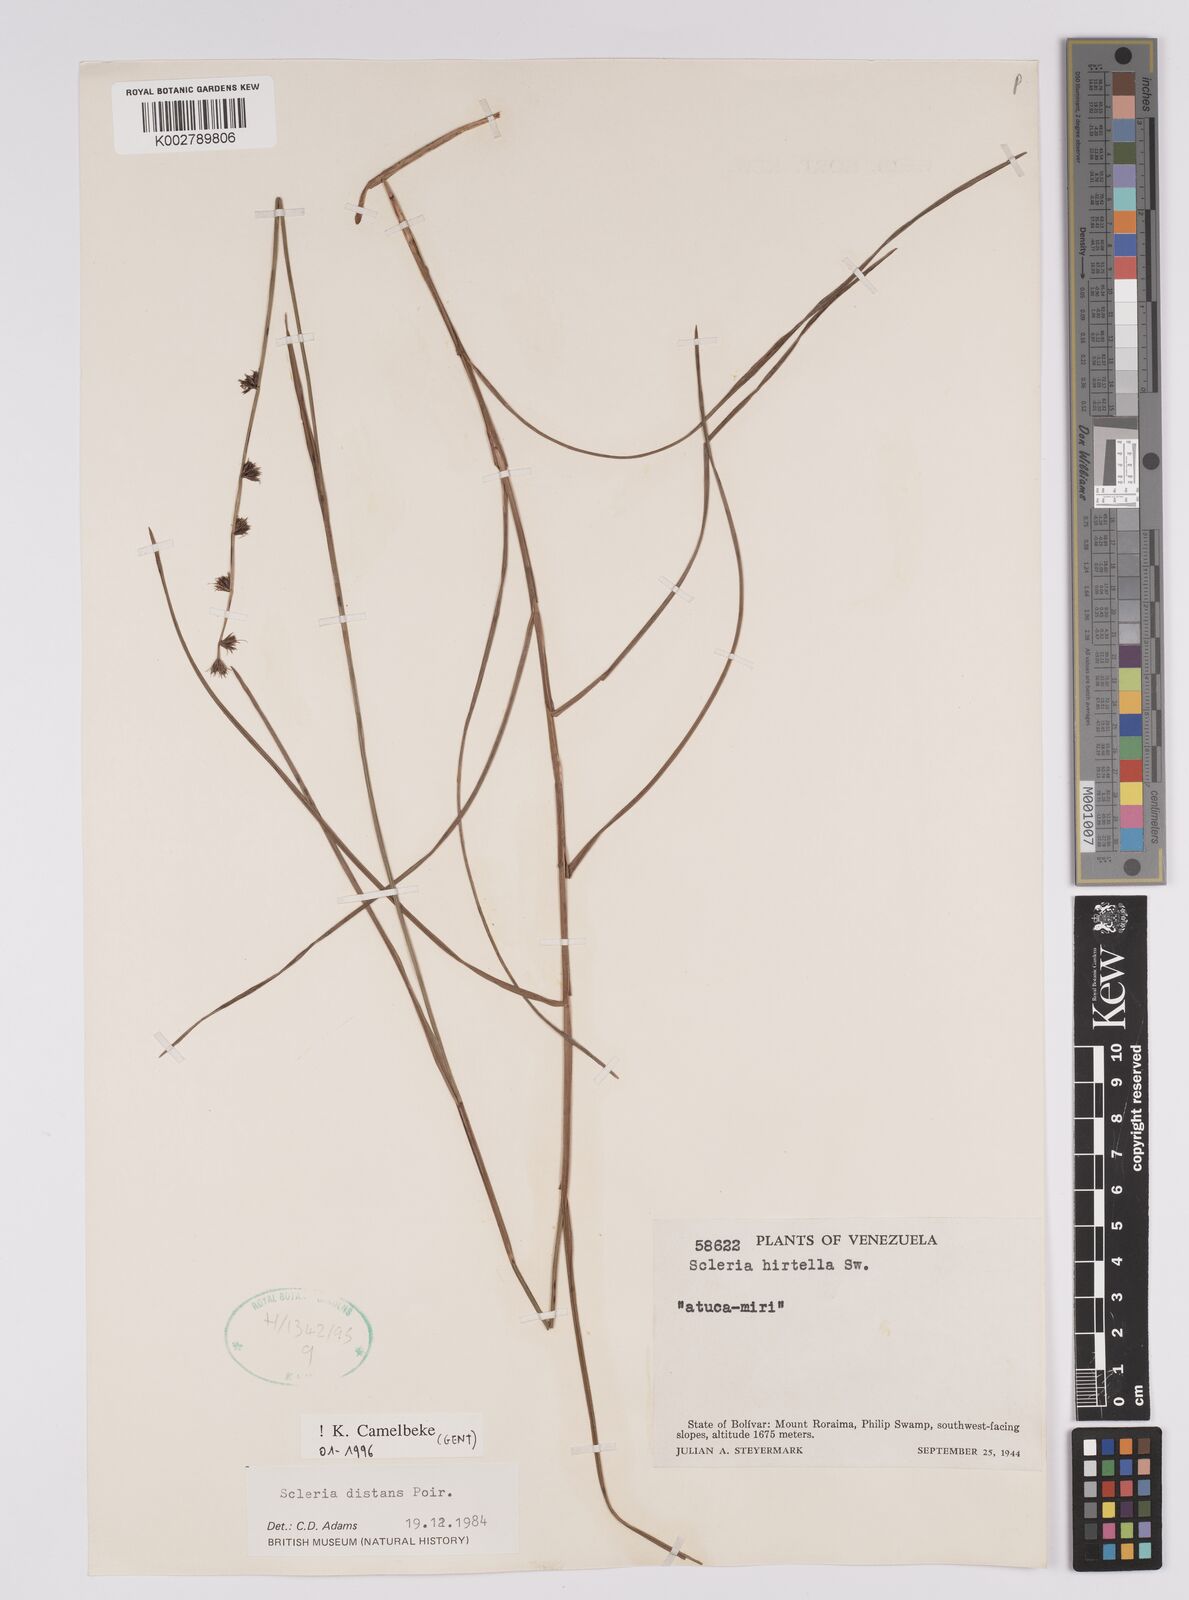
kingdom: Plantae
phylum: Tracheophyta
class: Liliopsida
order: Poales
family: Cyperaceae
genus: Scleria
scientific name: Scleria verticillata
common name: Low nutrush
